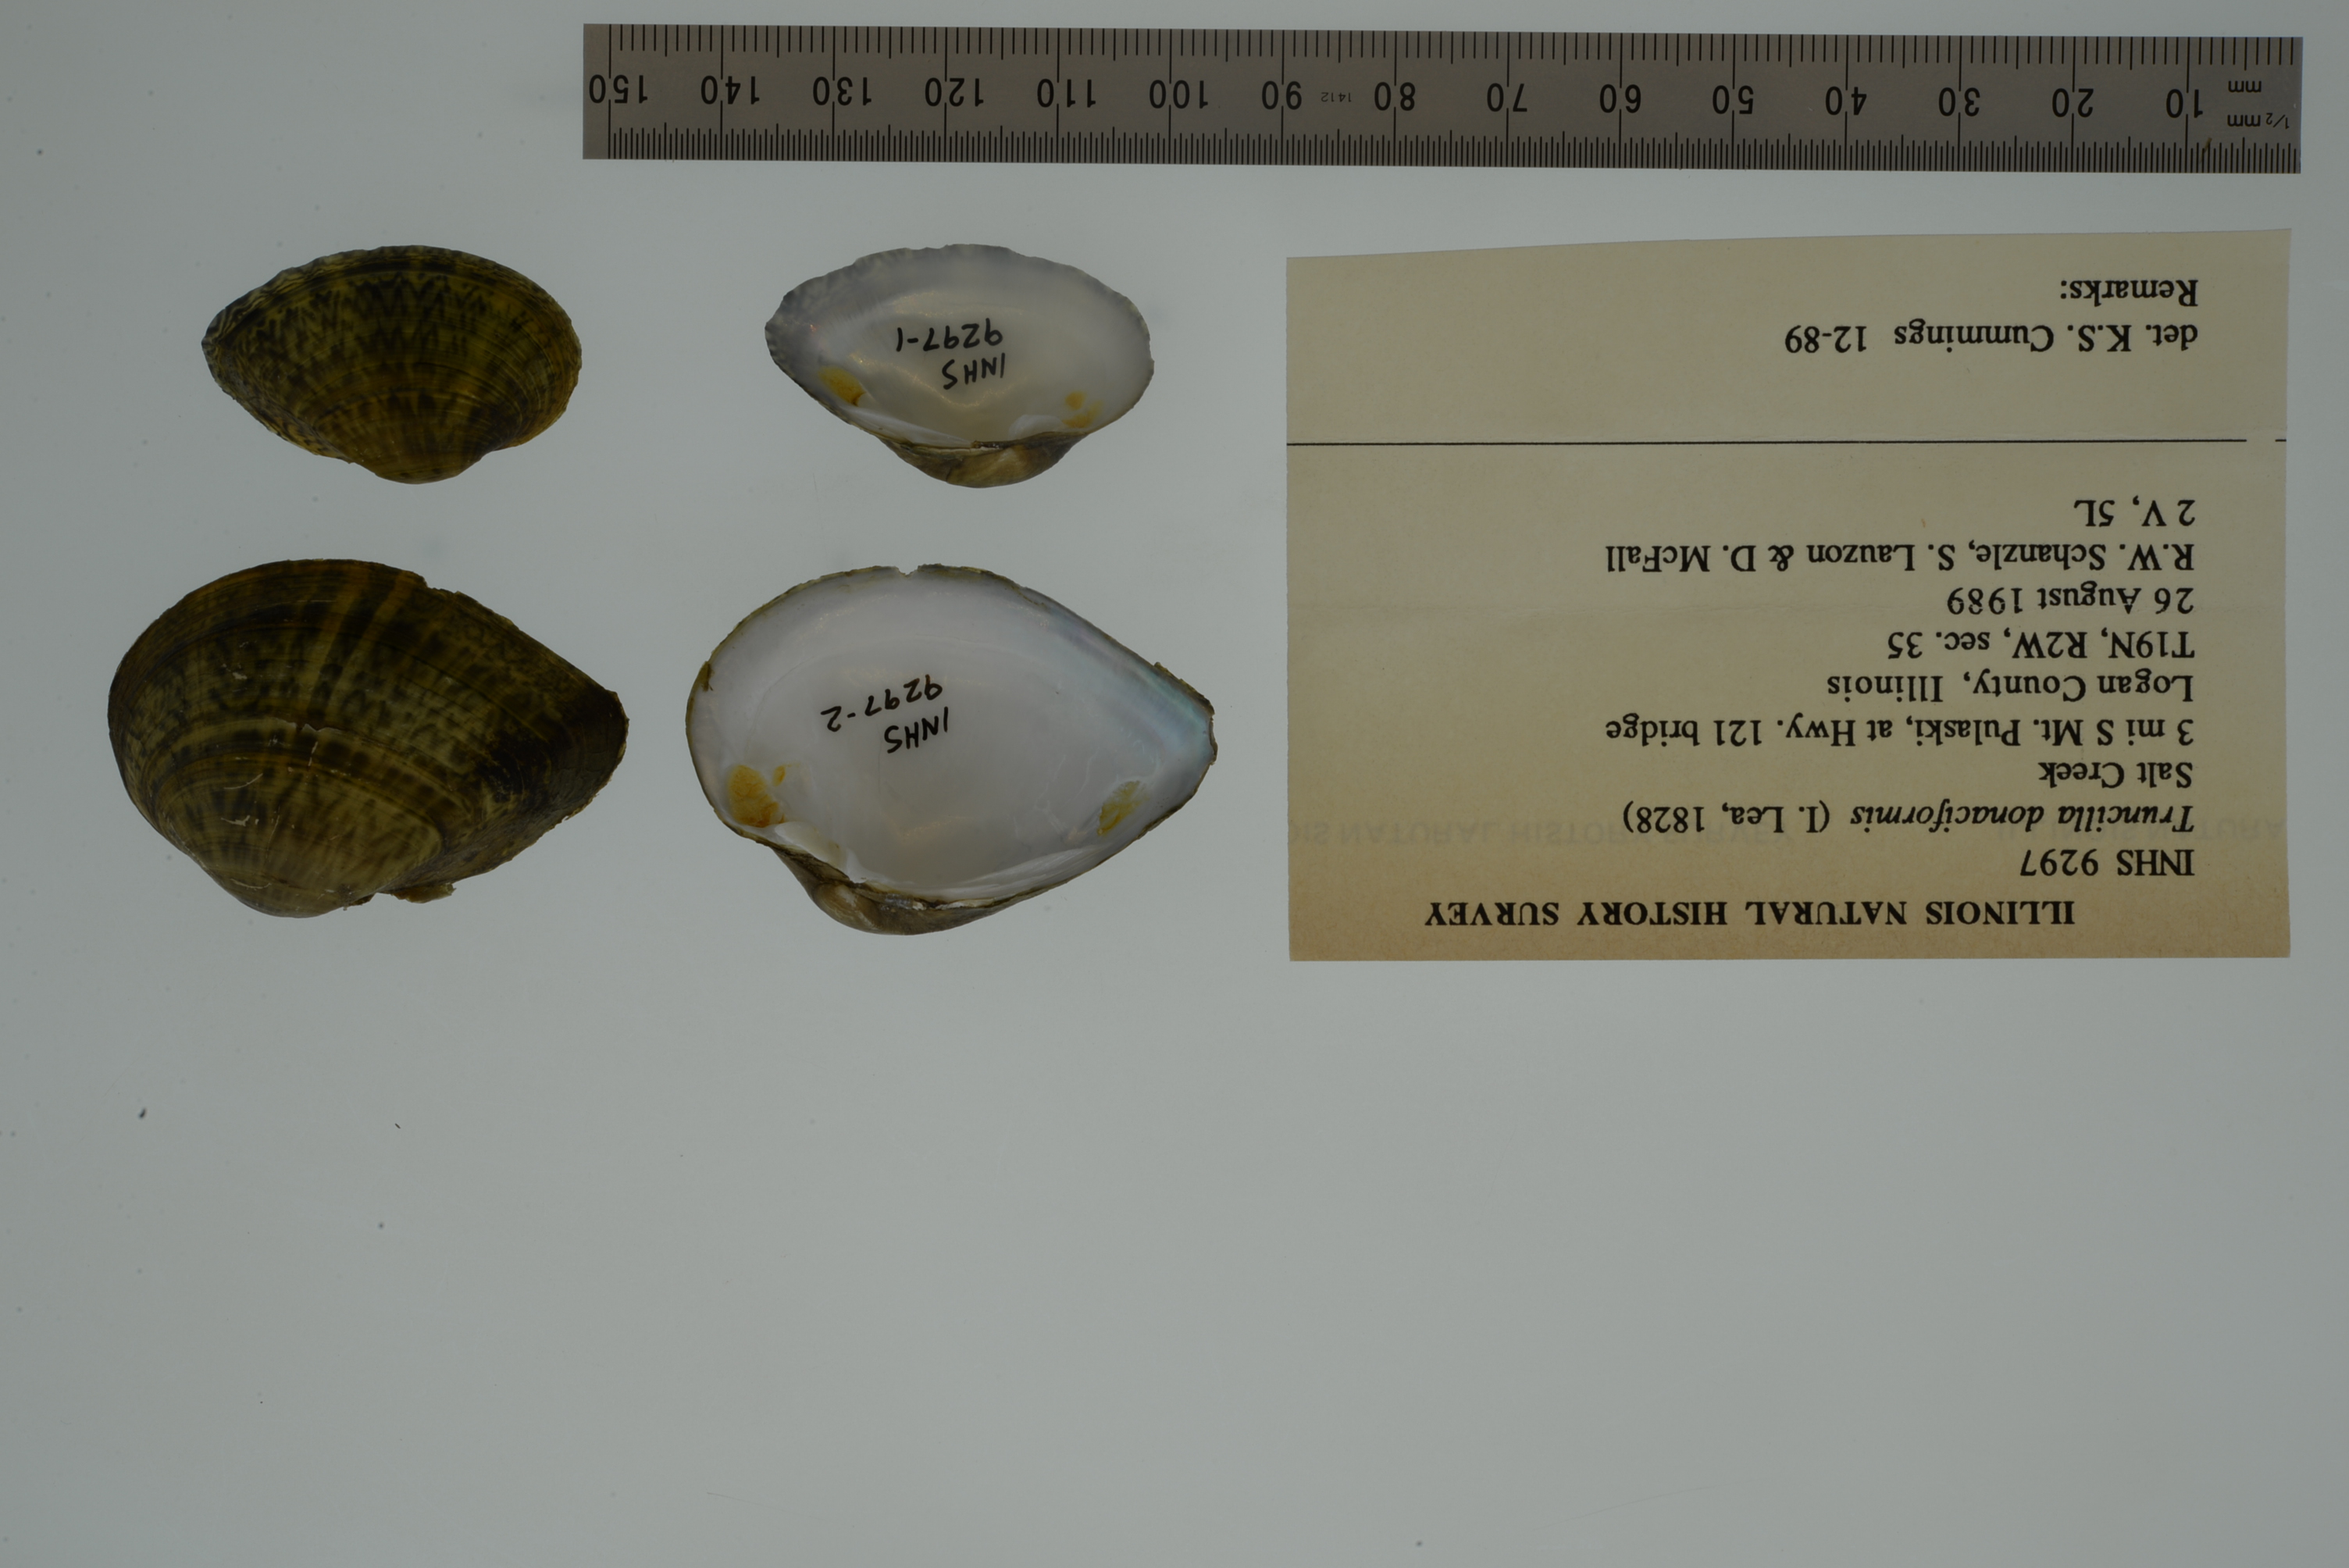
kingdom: Animalia
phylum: Mollusca
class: Bivalvia
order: Unionida
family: Unionidae
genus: Truncilla
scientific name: Truncilla donaciformis
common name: Fawnsfoot
